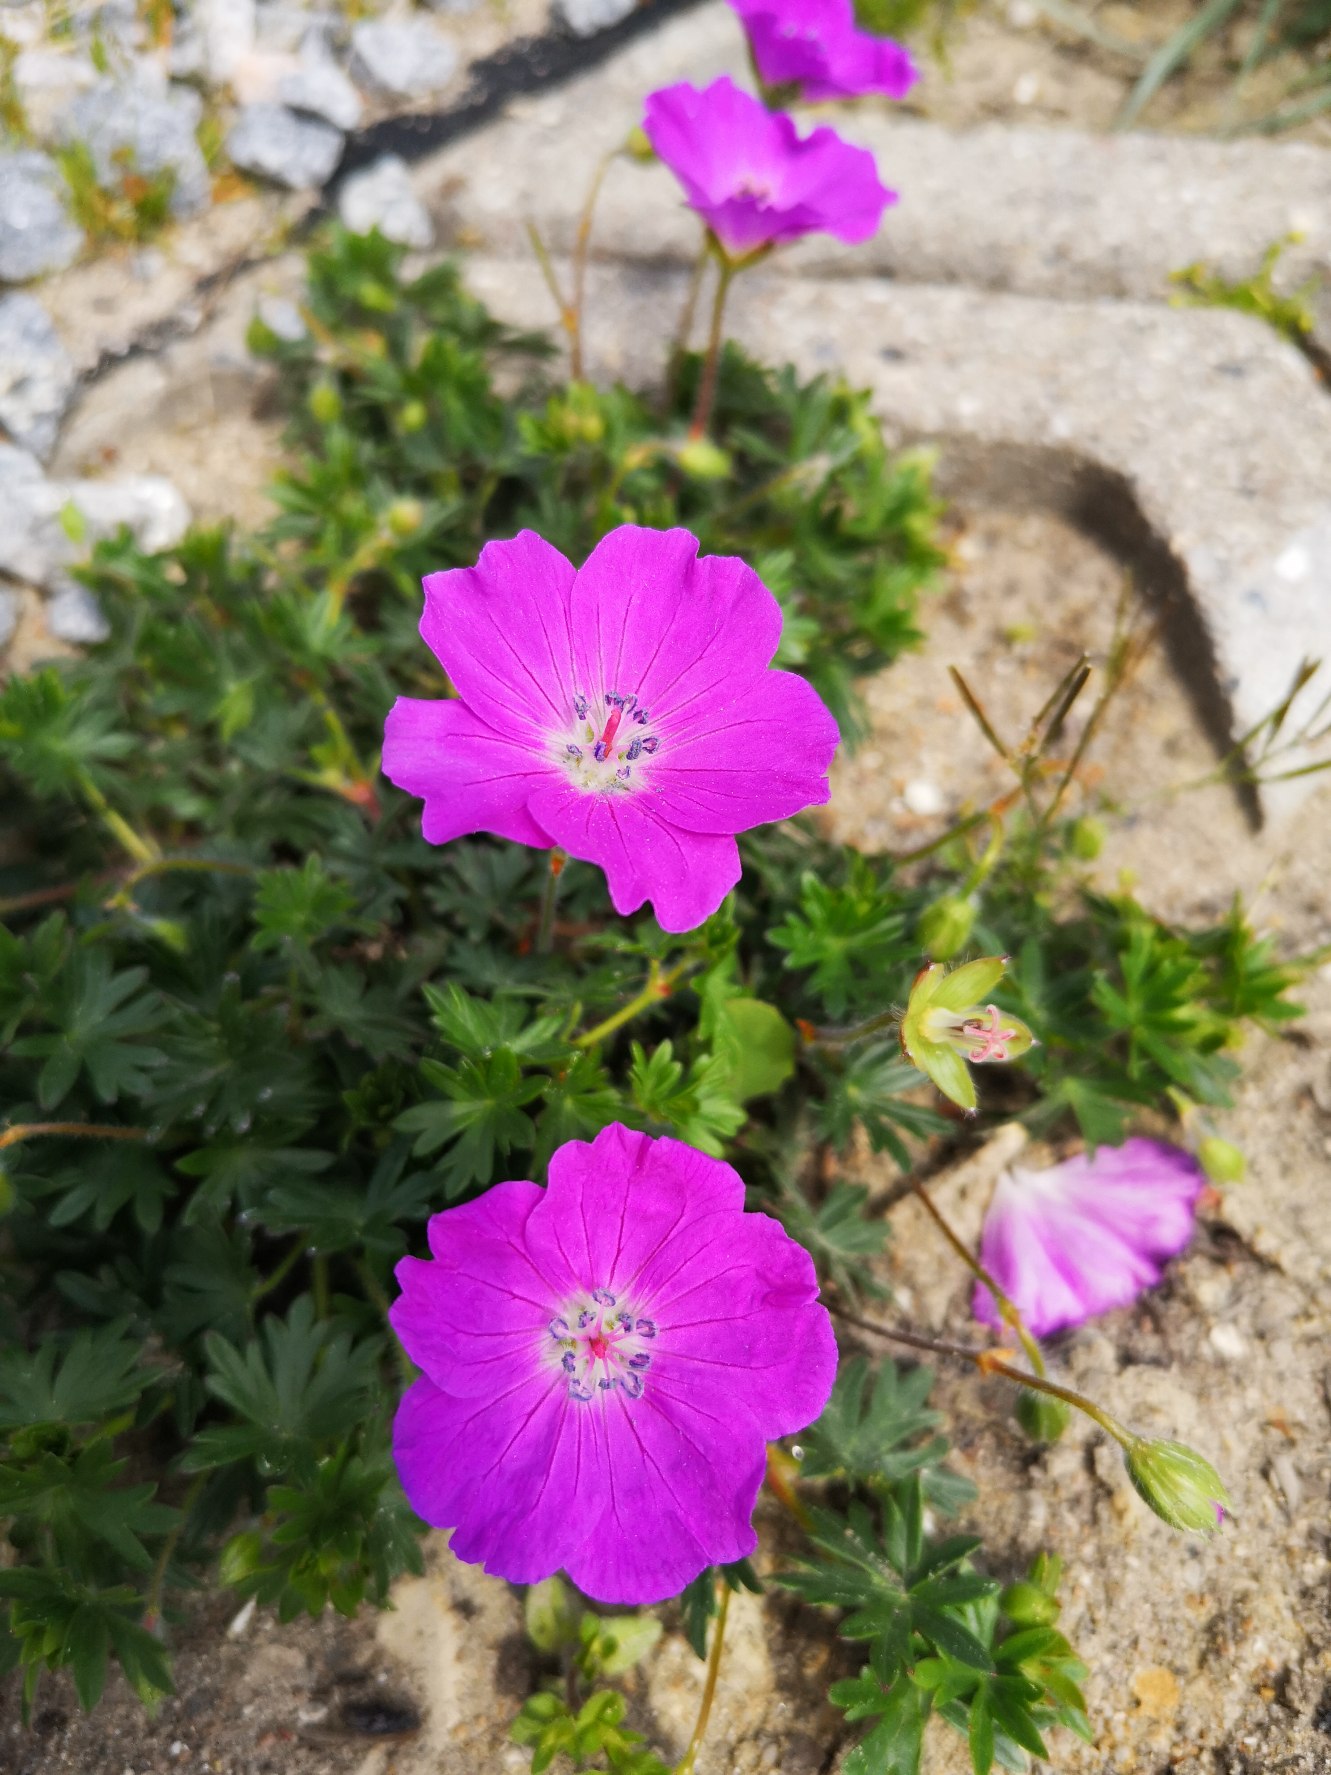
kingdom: Plantae
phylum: Tracheophyta
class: Magnoliopsida
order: Geraniales
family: Geraniaceae
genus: Geranium
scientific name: Geranium sanguineum
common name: Blodrød storkenæb
